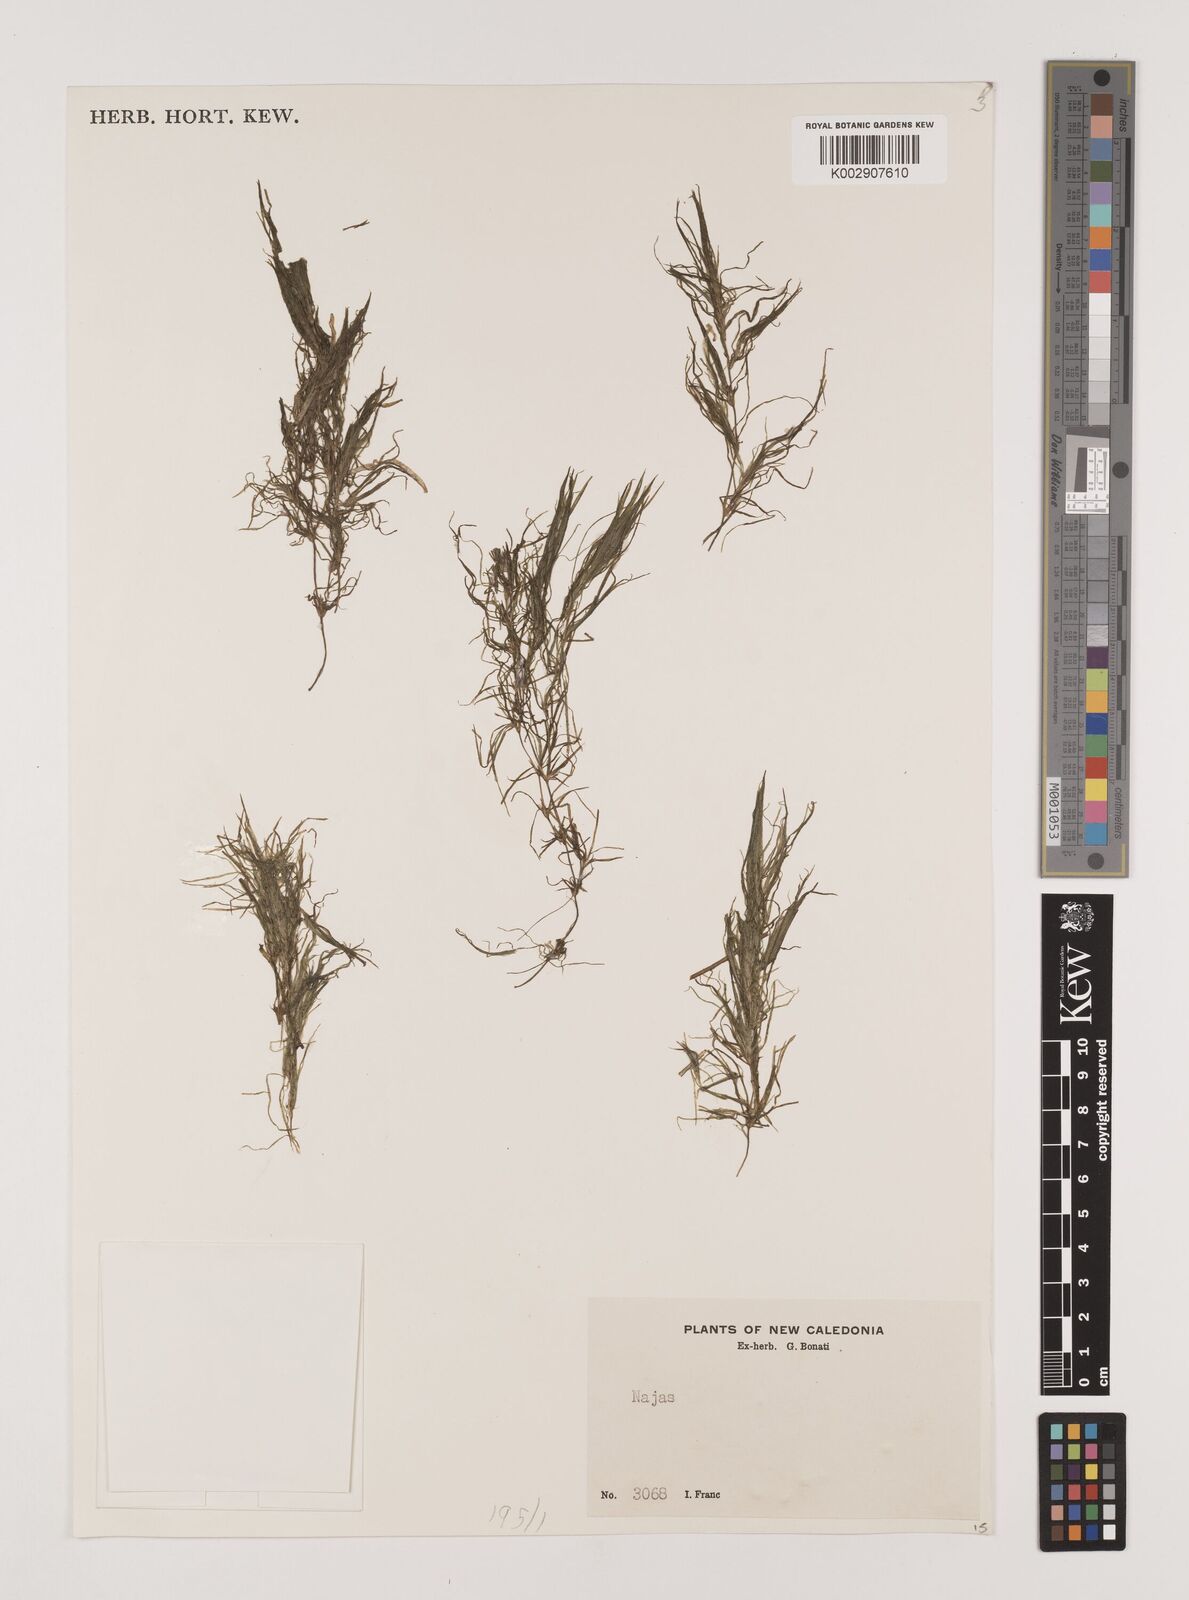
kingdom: Plantae
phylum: Tracheophyta
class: Liliopsida
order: Alismatales
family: Hydrocharitaceae
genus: Najas
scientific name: Najas
